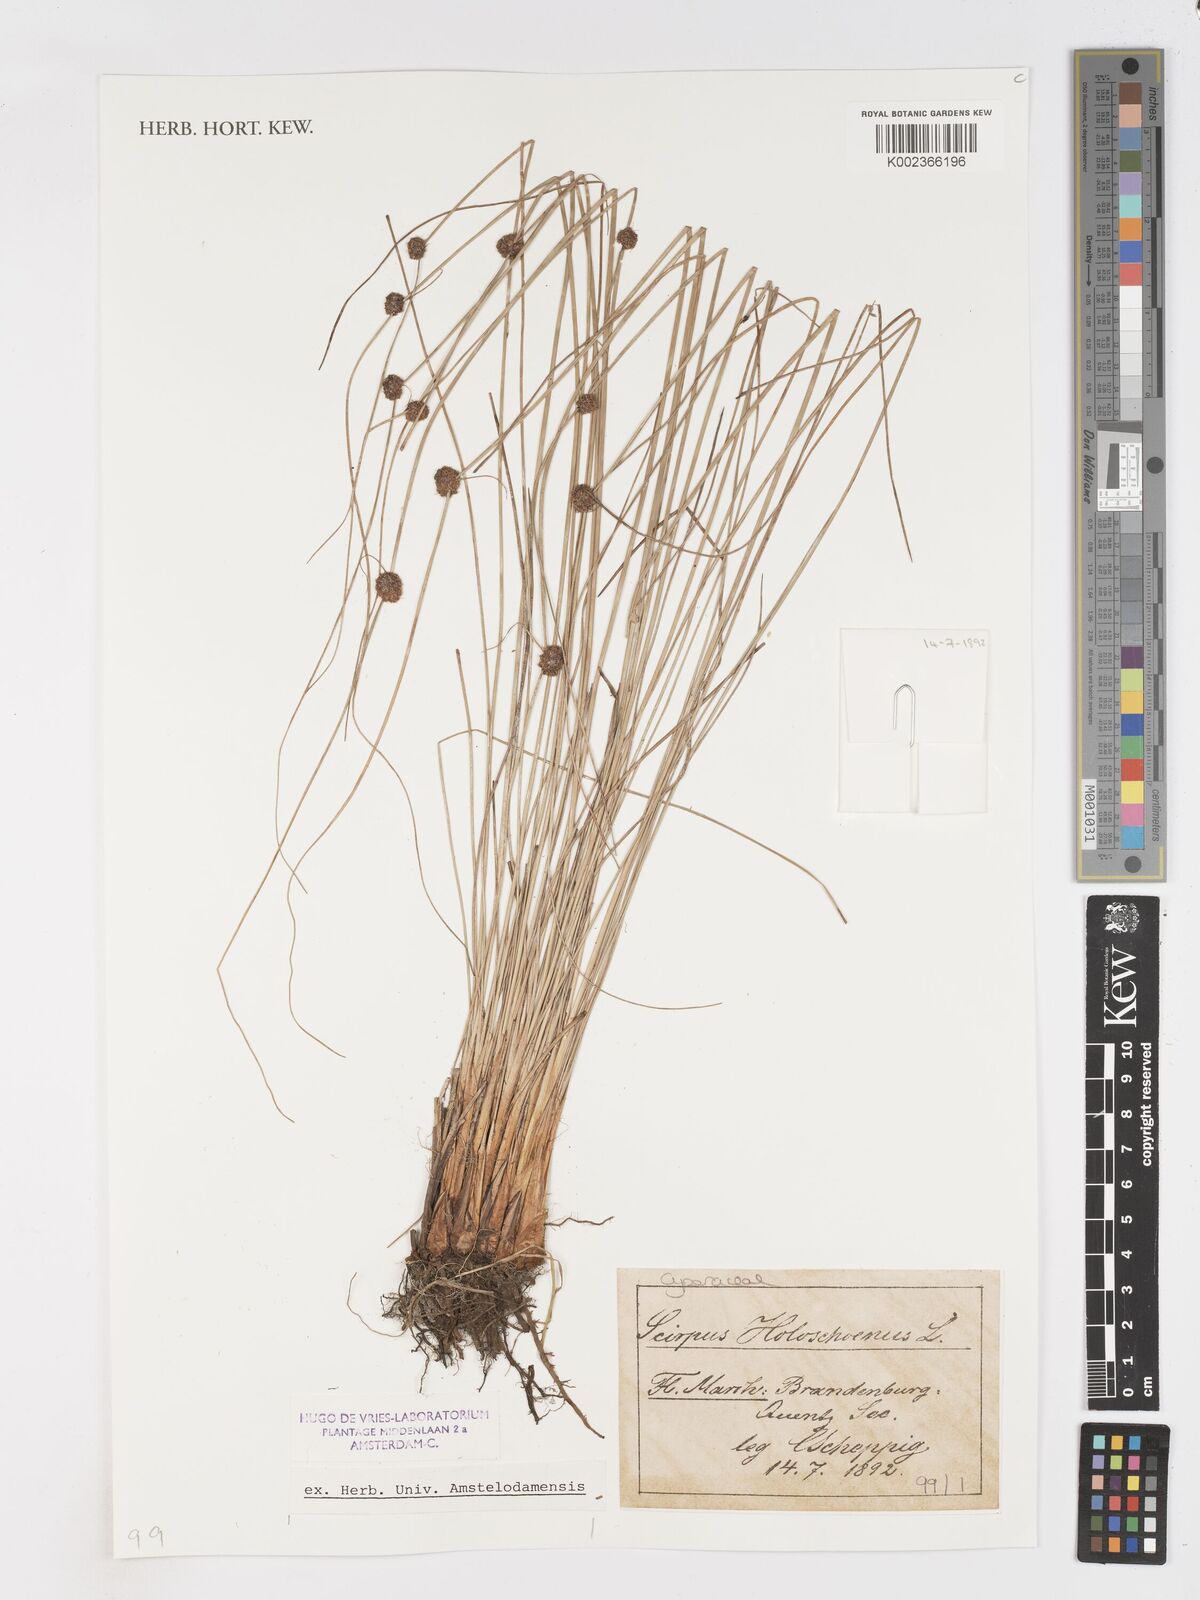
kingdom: Plantae
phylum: Tracheophyta
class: Liliopsida
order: Poales
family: Cyperaceae
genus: Scirpoides
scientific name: Scirpoides holoschoenus
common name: Round-headed club-rush
